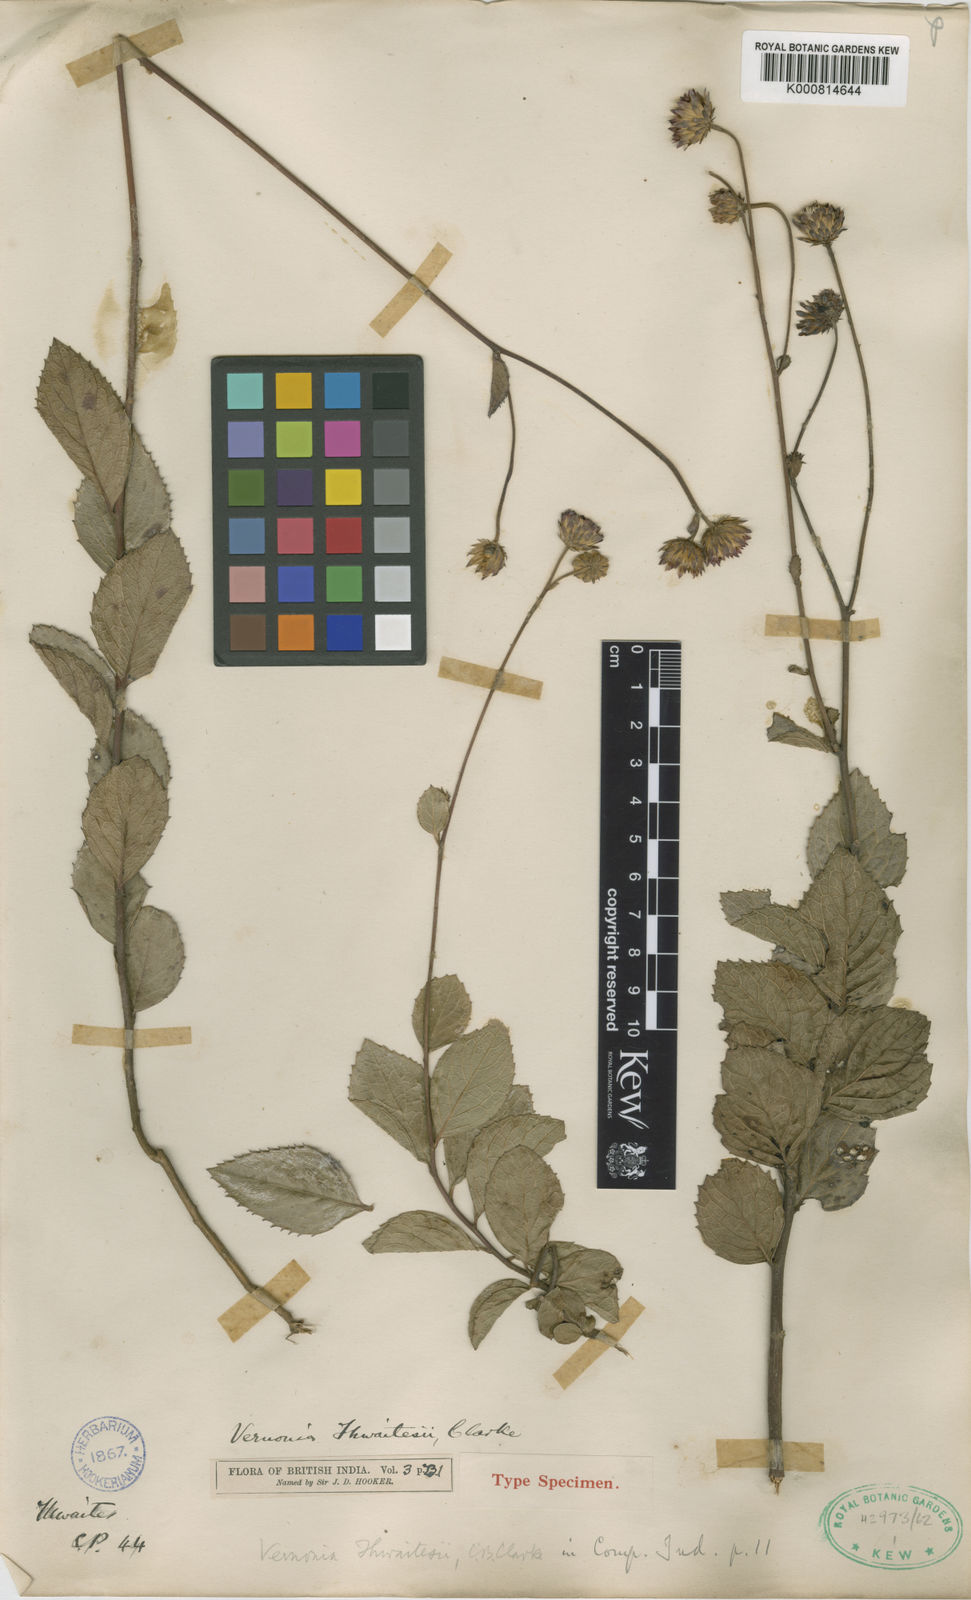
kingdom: Plantae
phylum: Tracheophyta
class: Magnoliopsida
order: Asterales
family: Asteraceae
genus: Acilepis
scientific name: Acilepis thwaitesii
